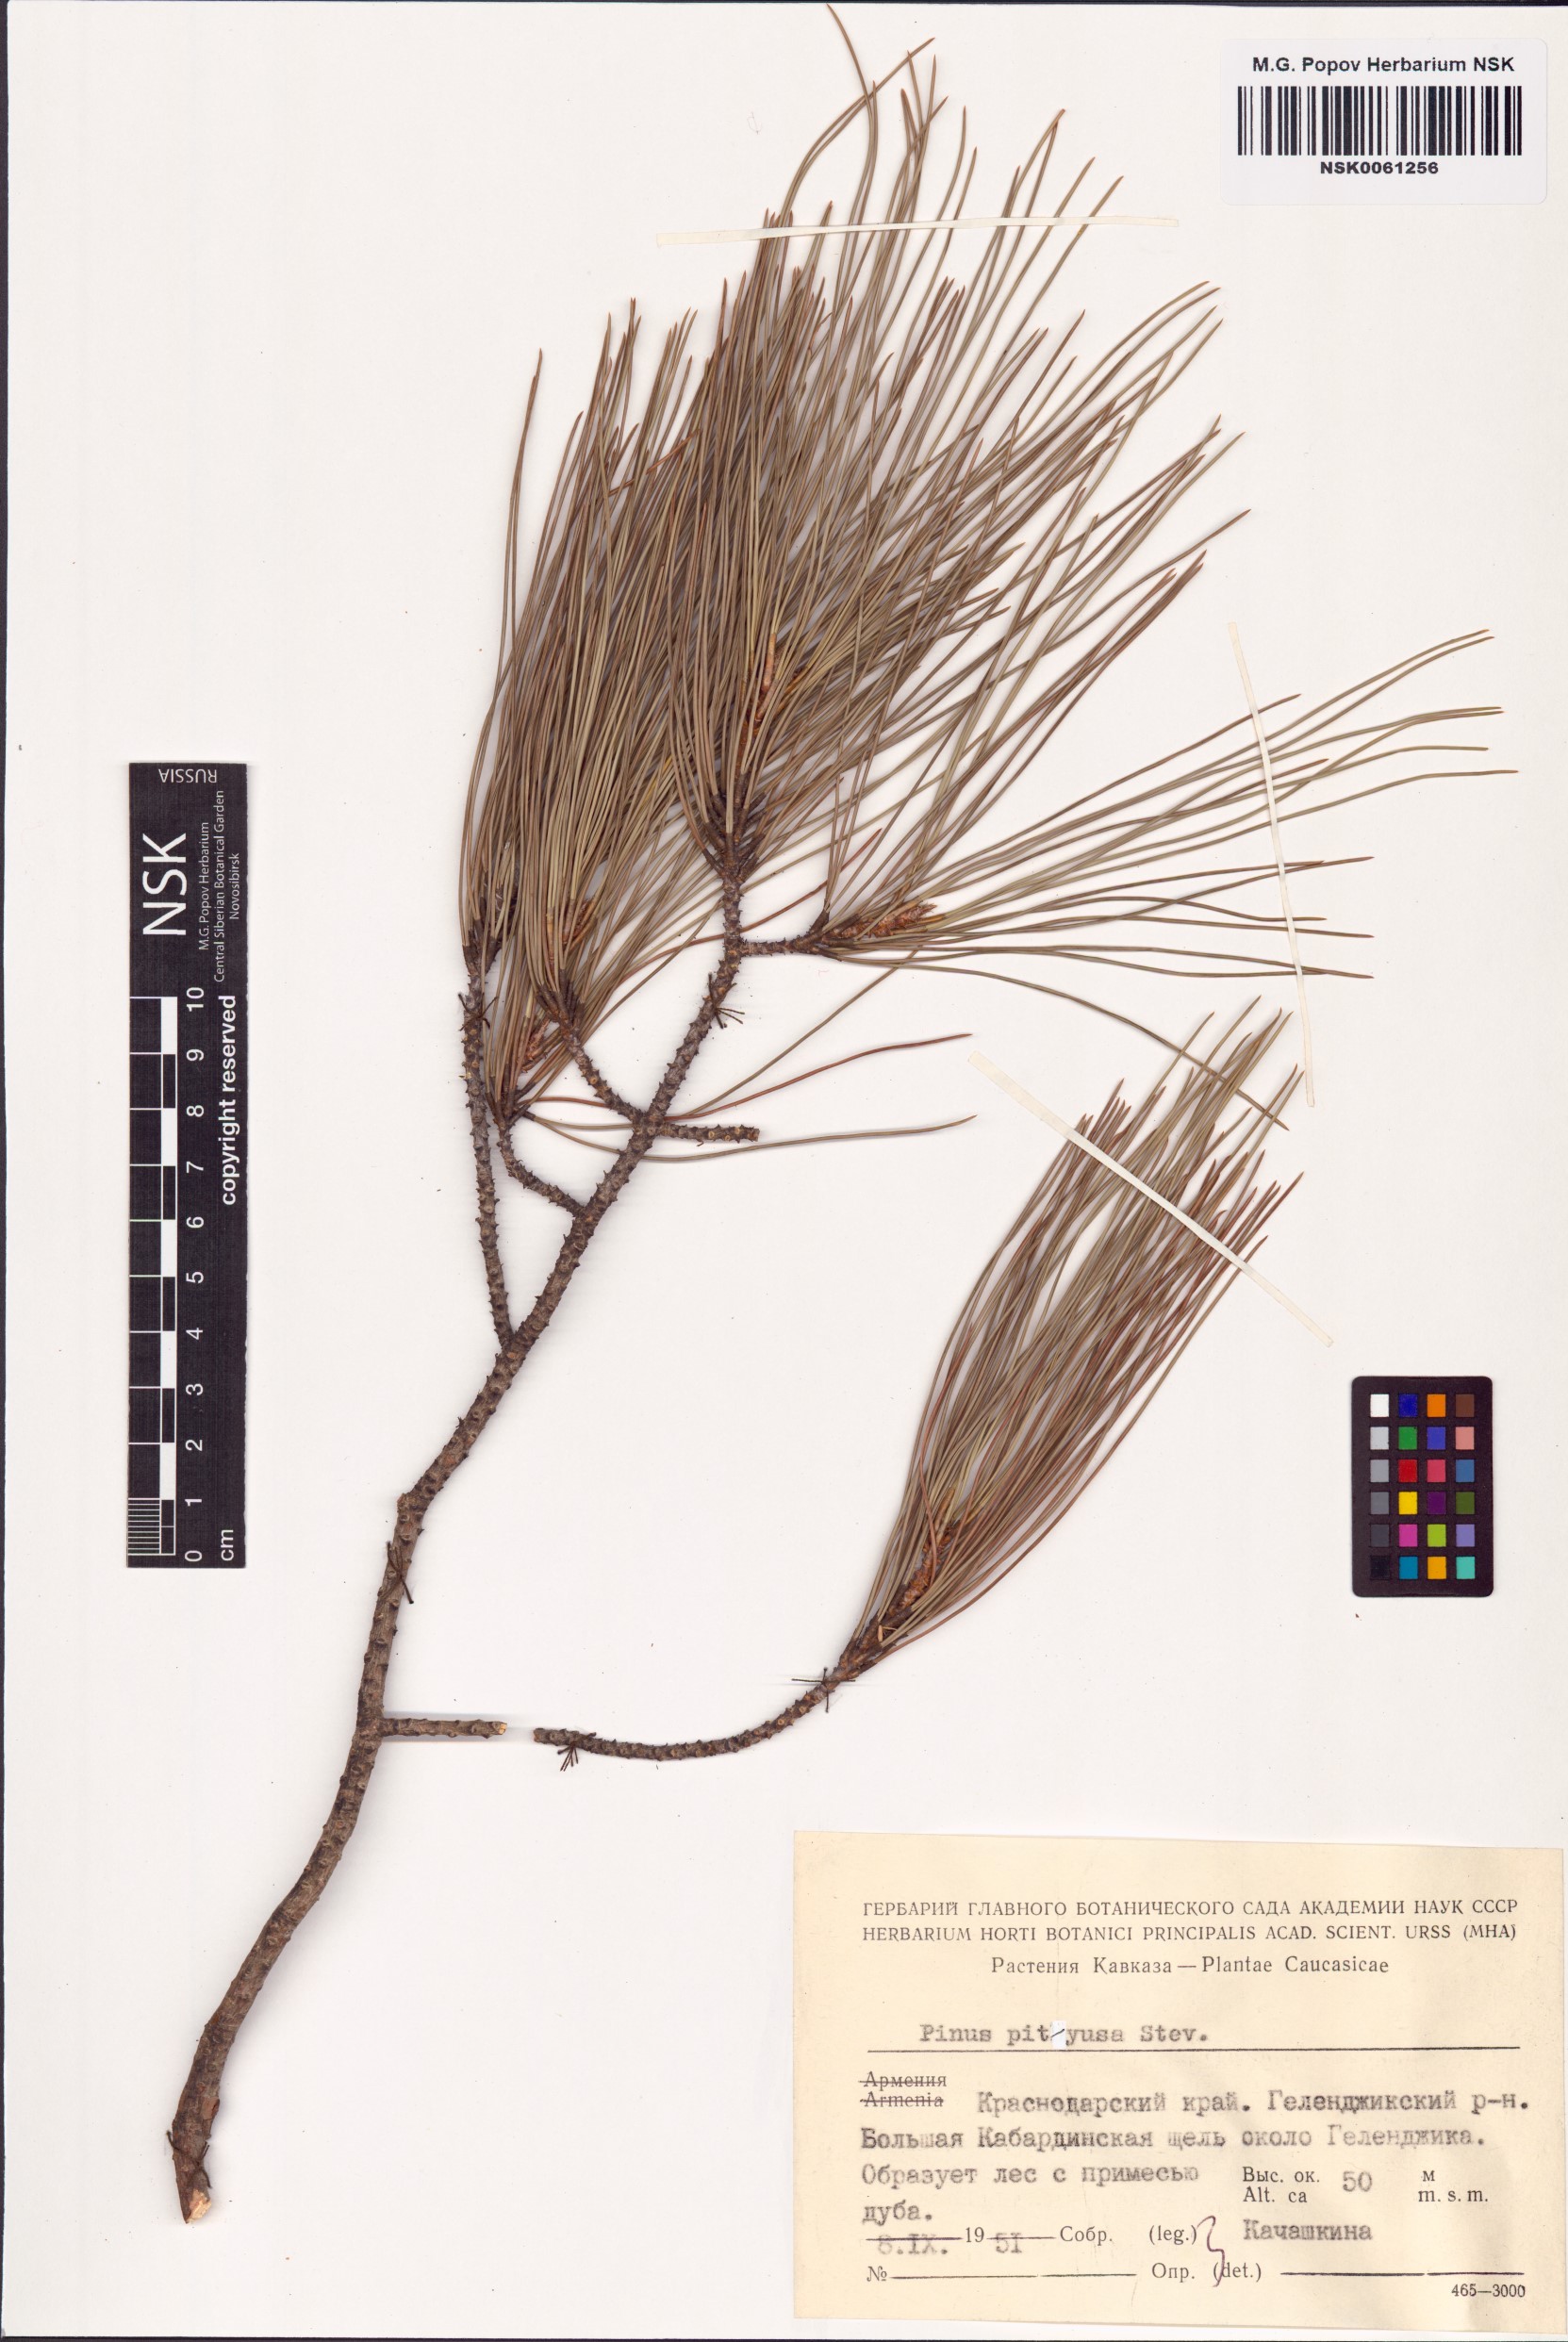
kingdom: Plantae
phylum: Tracheophyta
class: Pinopsida
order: Pinales
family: Pinaceae
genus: Pinus
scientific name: Pinus brutia
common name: Turkish pine
